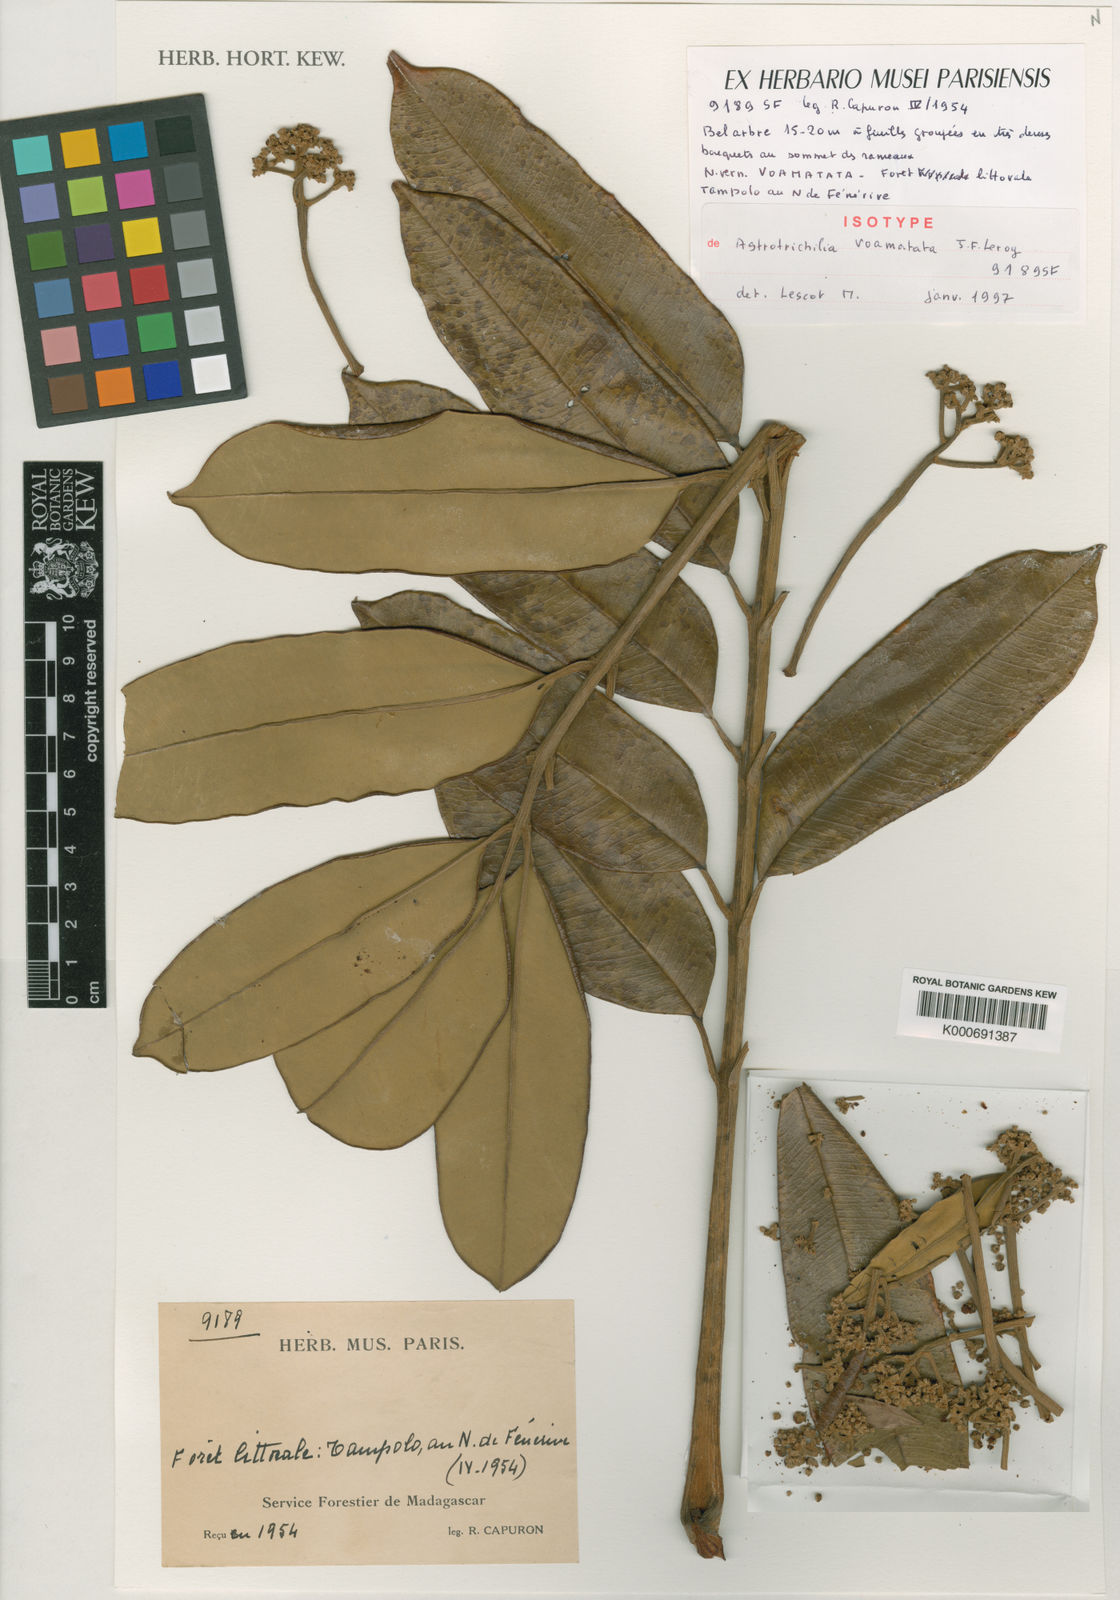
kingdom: Plantae
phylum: Tracheophyta
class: Magnoliopsida
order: Sapindales
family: Meliaceae
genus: Astrotrichilia
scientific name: Astrotrichilia voamatata
